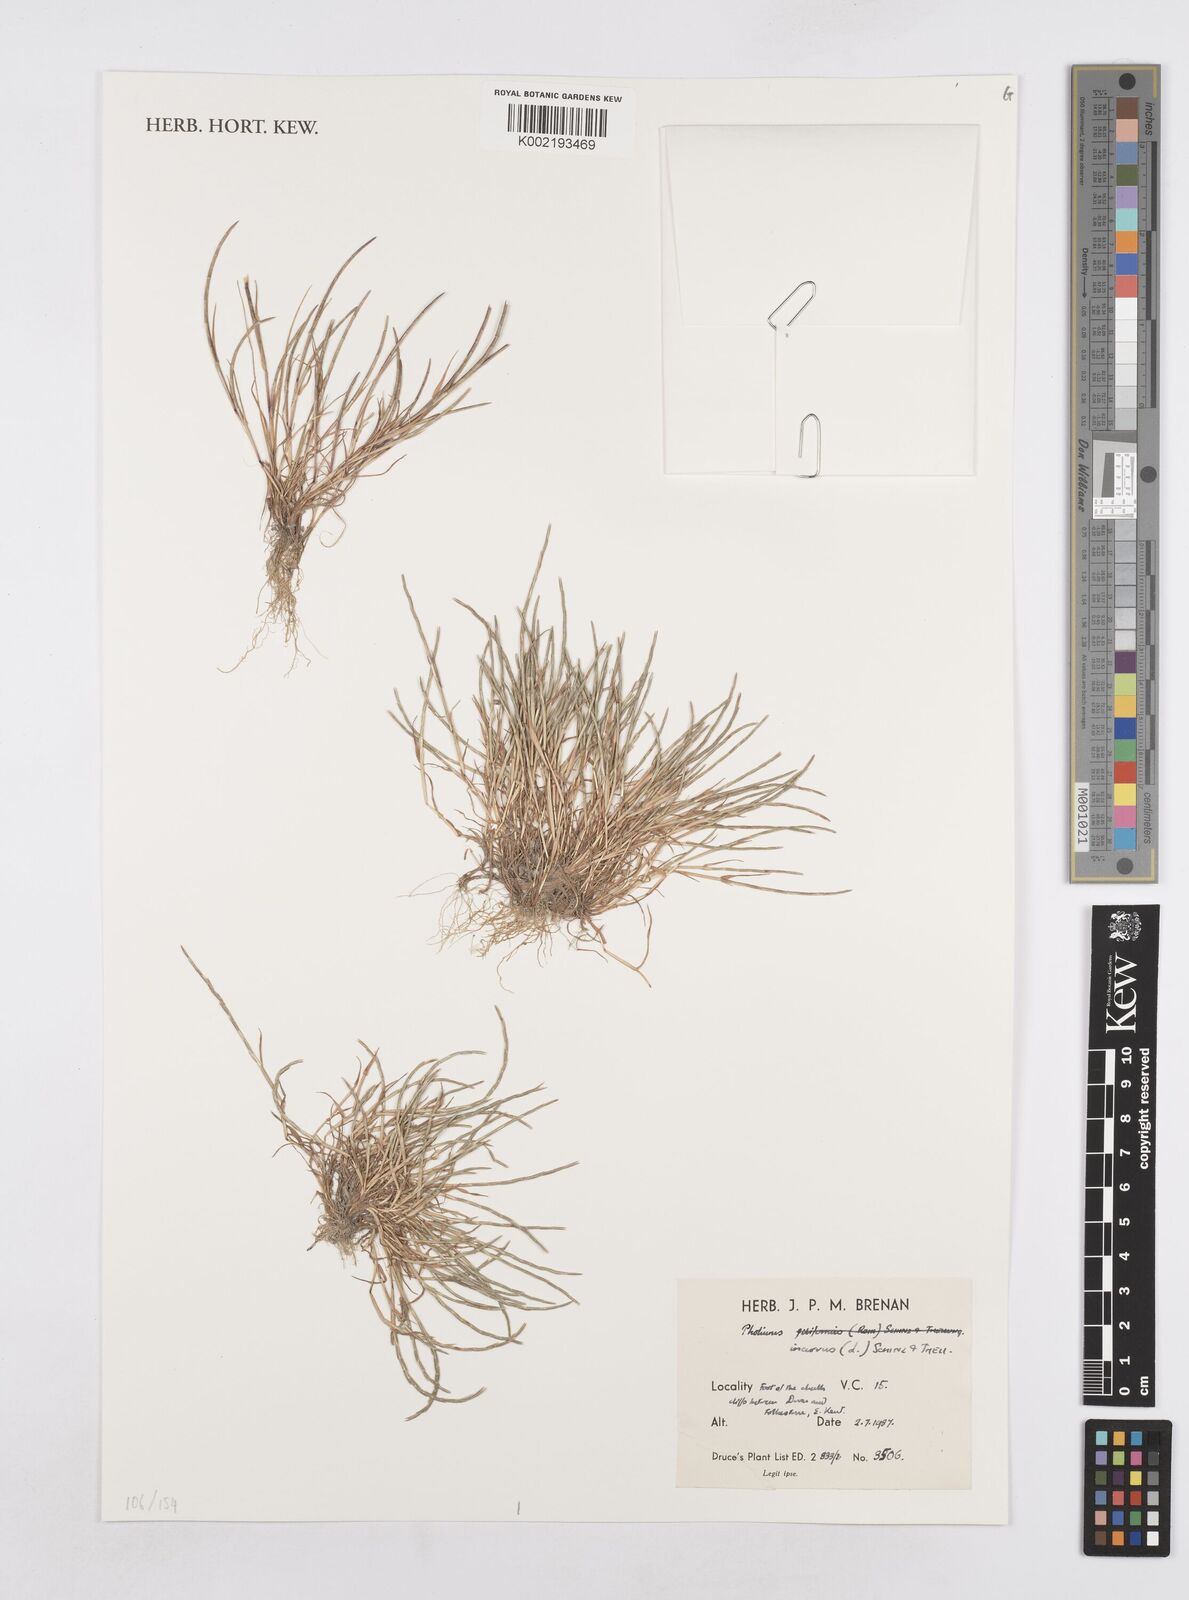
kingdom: Plantae
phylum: Tracheophyta
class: Liliopsida
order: Poales
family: Poaceae
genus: Parapholis
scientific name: Parapholis incurva
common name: Curved sicklegrass
